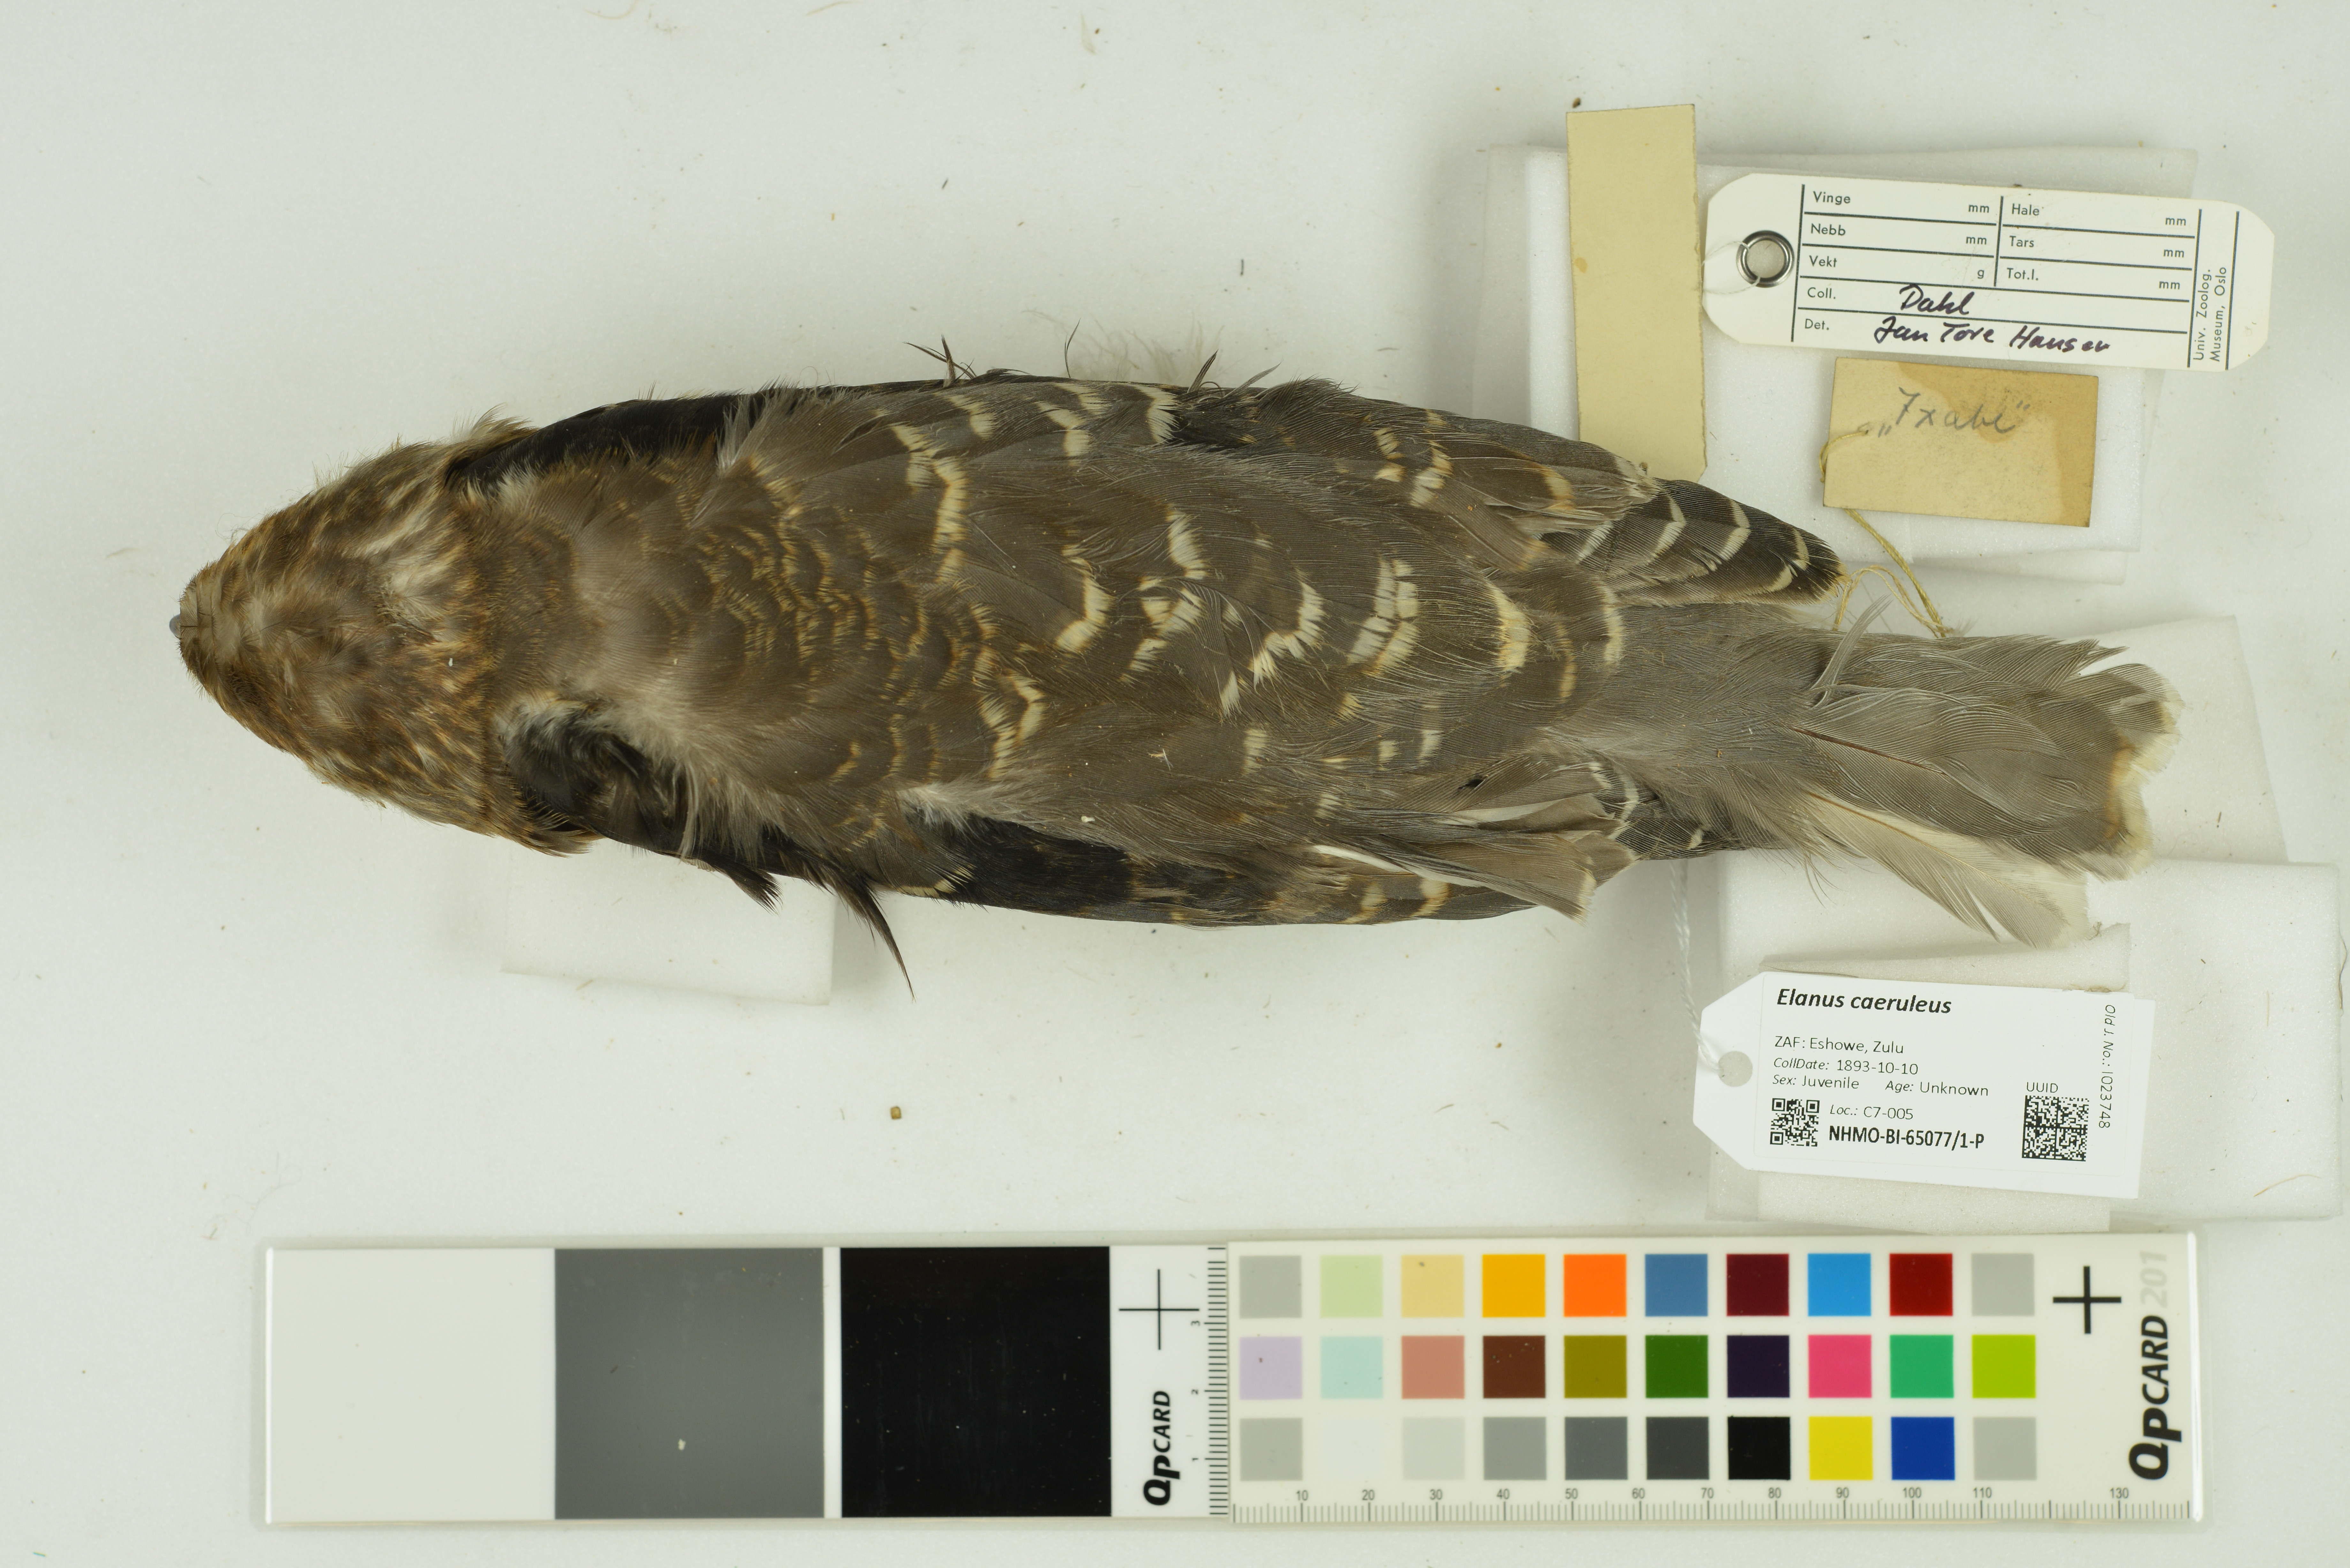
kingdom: Animalia
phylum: Chordata
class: Aves
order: Accipitriformes
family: Accipitridae
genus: Elanus
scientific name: Elanus caeruleus
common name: Black-winged kite
